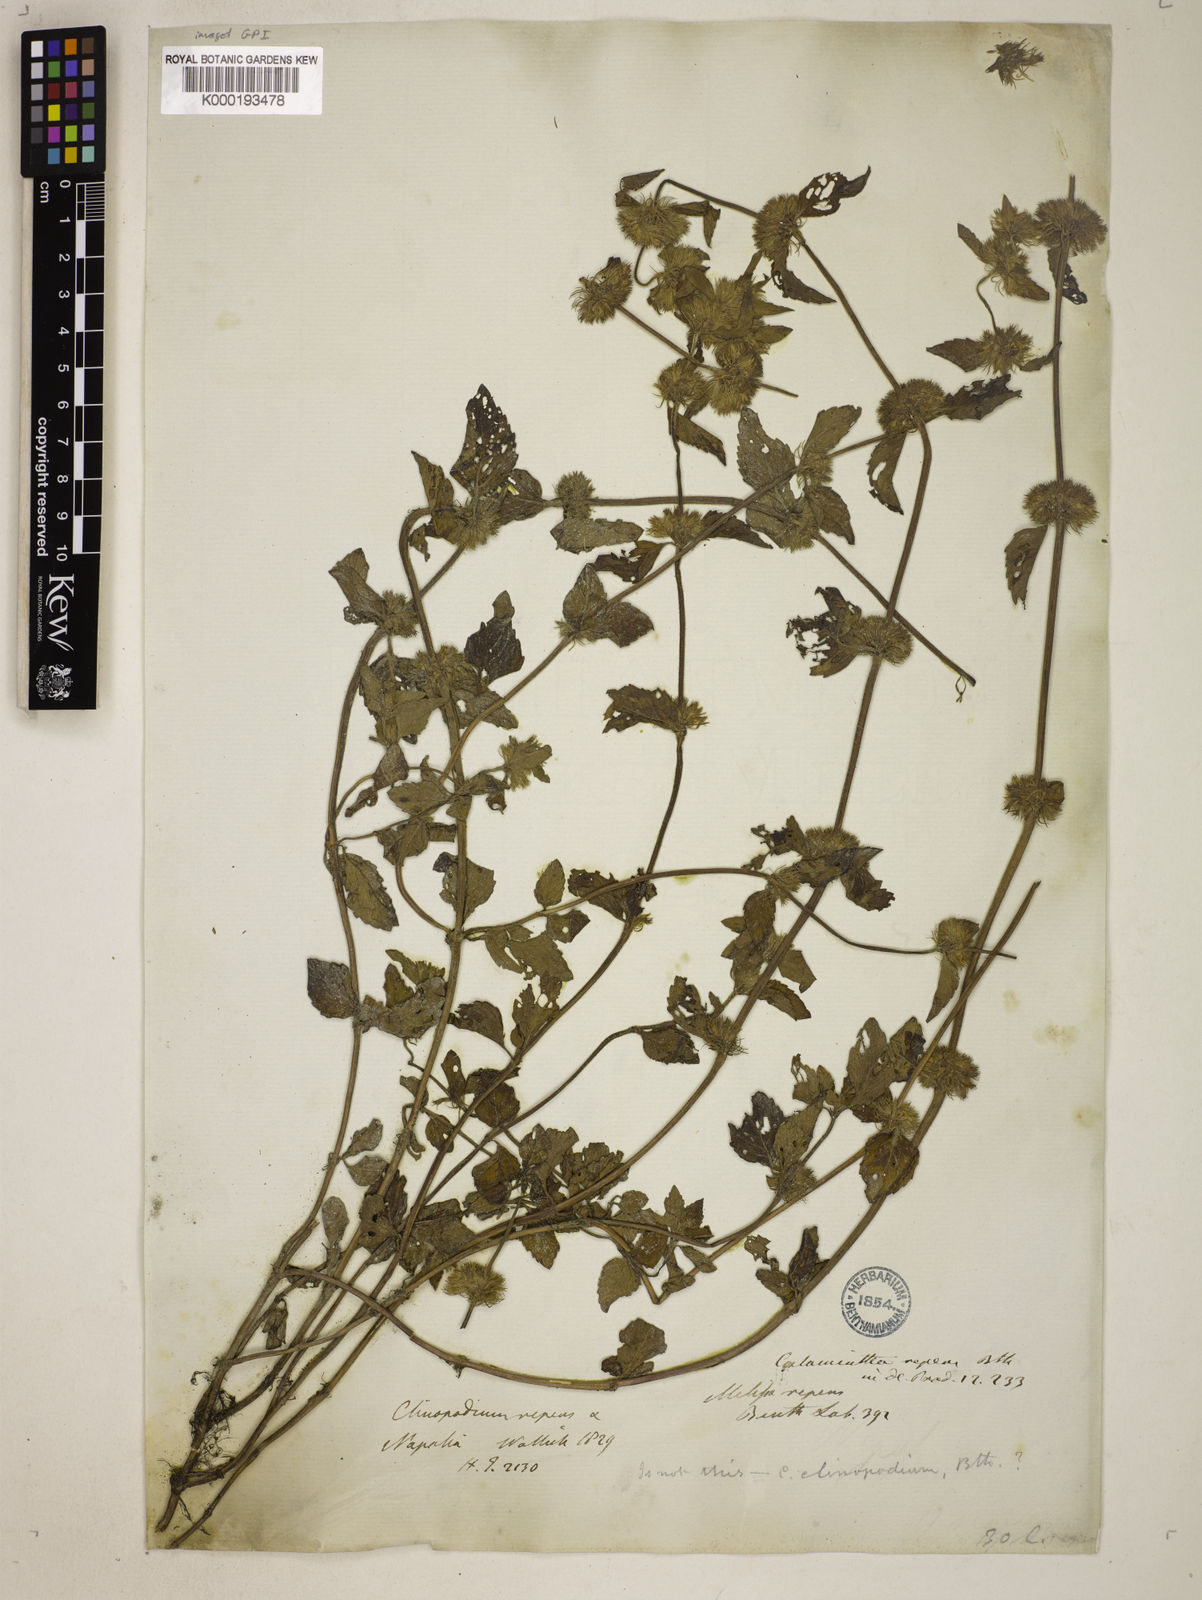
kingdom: Plantae
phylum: Tracheophyta
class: Magnoliopsida
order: Lamiales
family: Lamiaceae
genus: Clinopodium
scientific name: Clinopodium umbrosum
